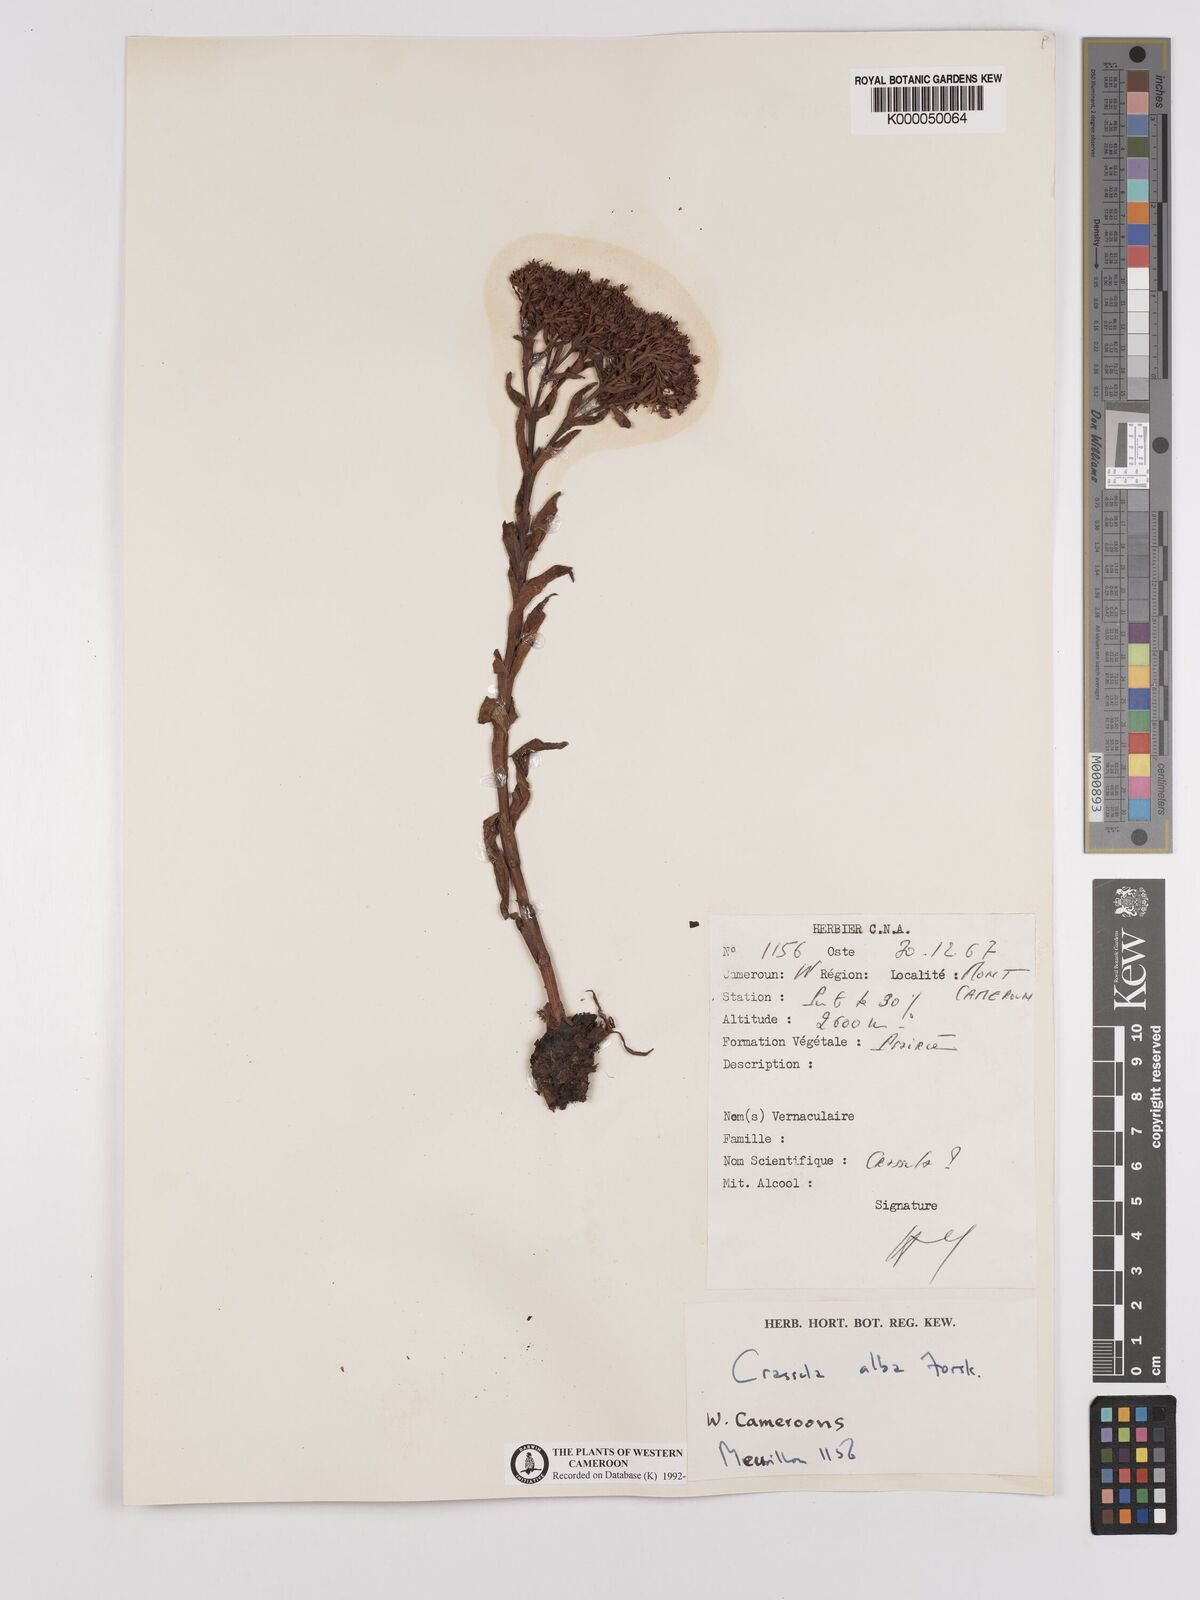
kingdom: Plantae
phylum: Tracheophyta
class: Magnoliopsida
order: Saxifragales
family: Crassulaceae
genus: Crassula
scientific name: Crassula vaginata
